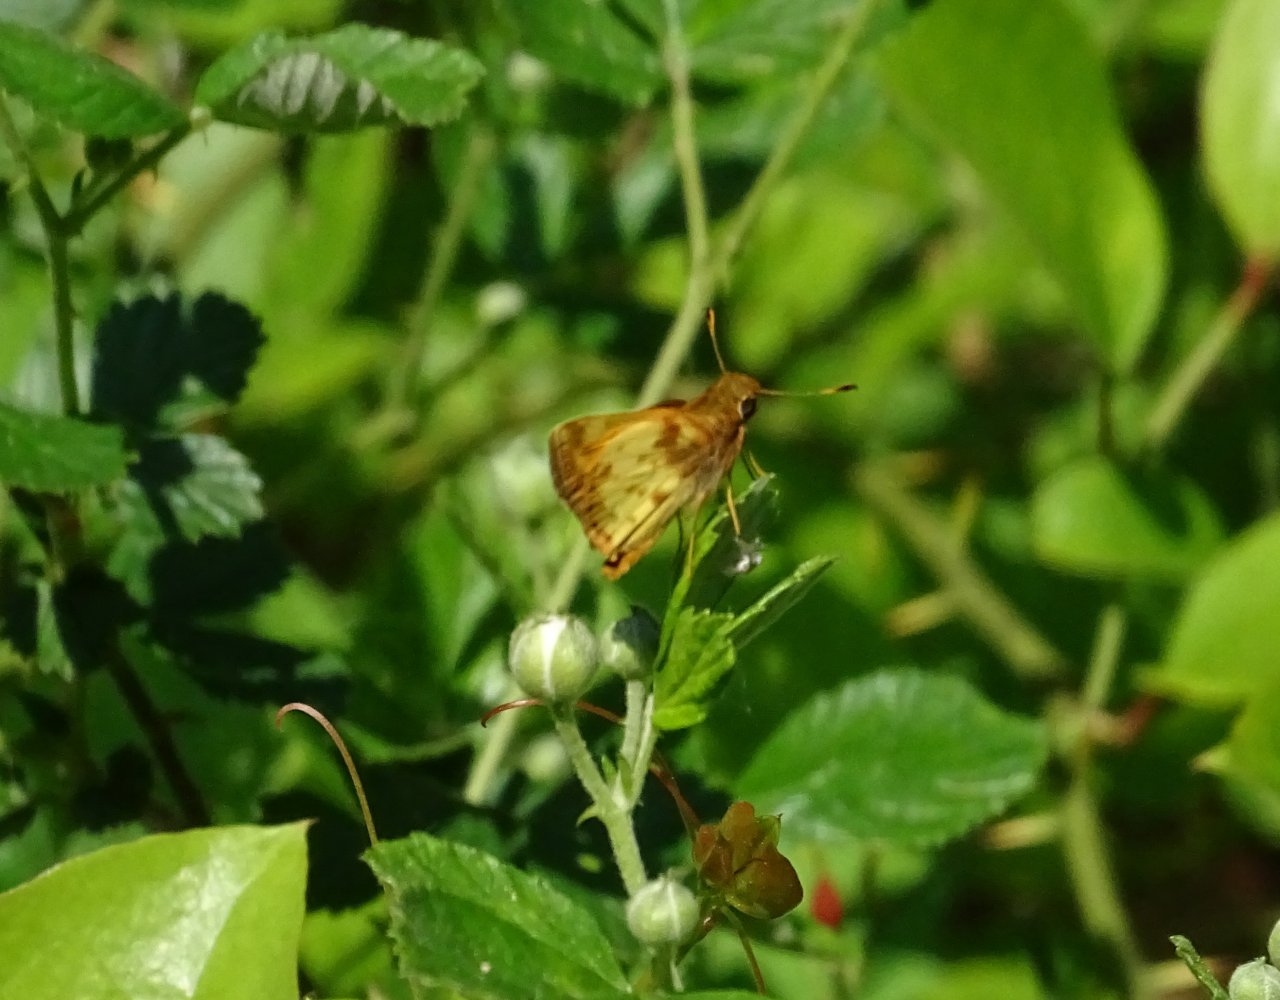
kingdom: Animalia
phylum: Arthropoda
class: Insecta
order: Lepidoptera
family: Hesperiidae
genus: Lon
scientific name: Lon zabulon
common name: Zabulon Skipper
